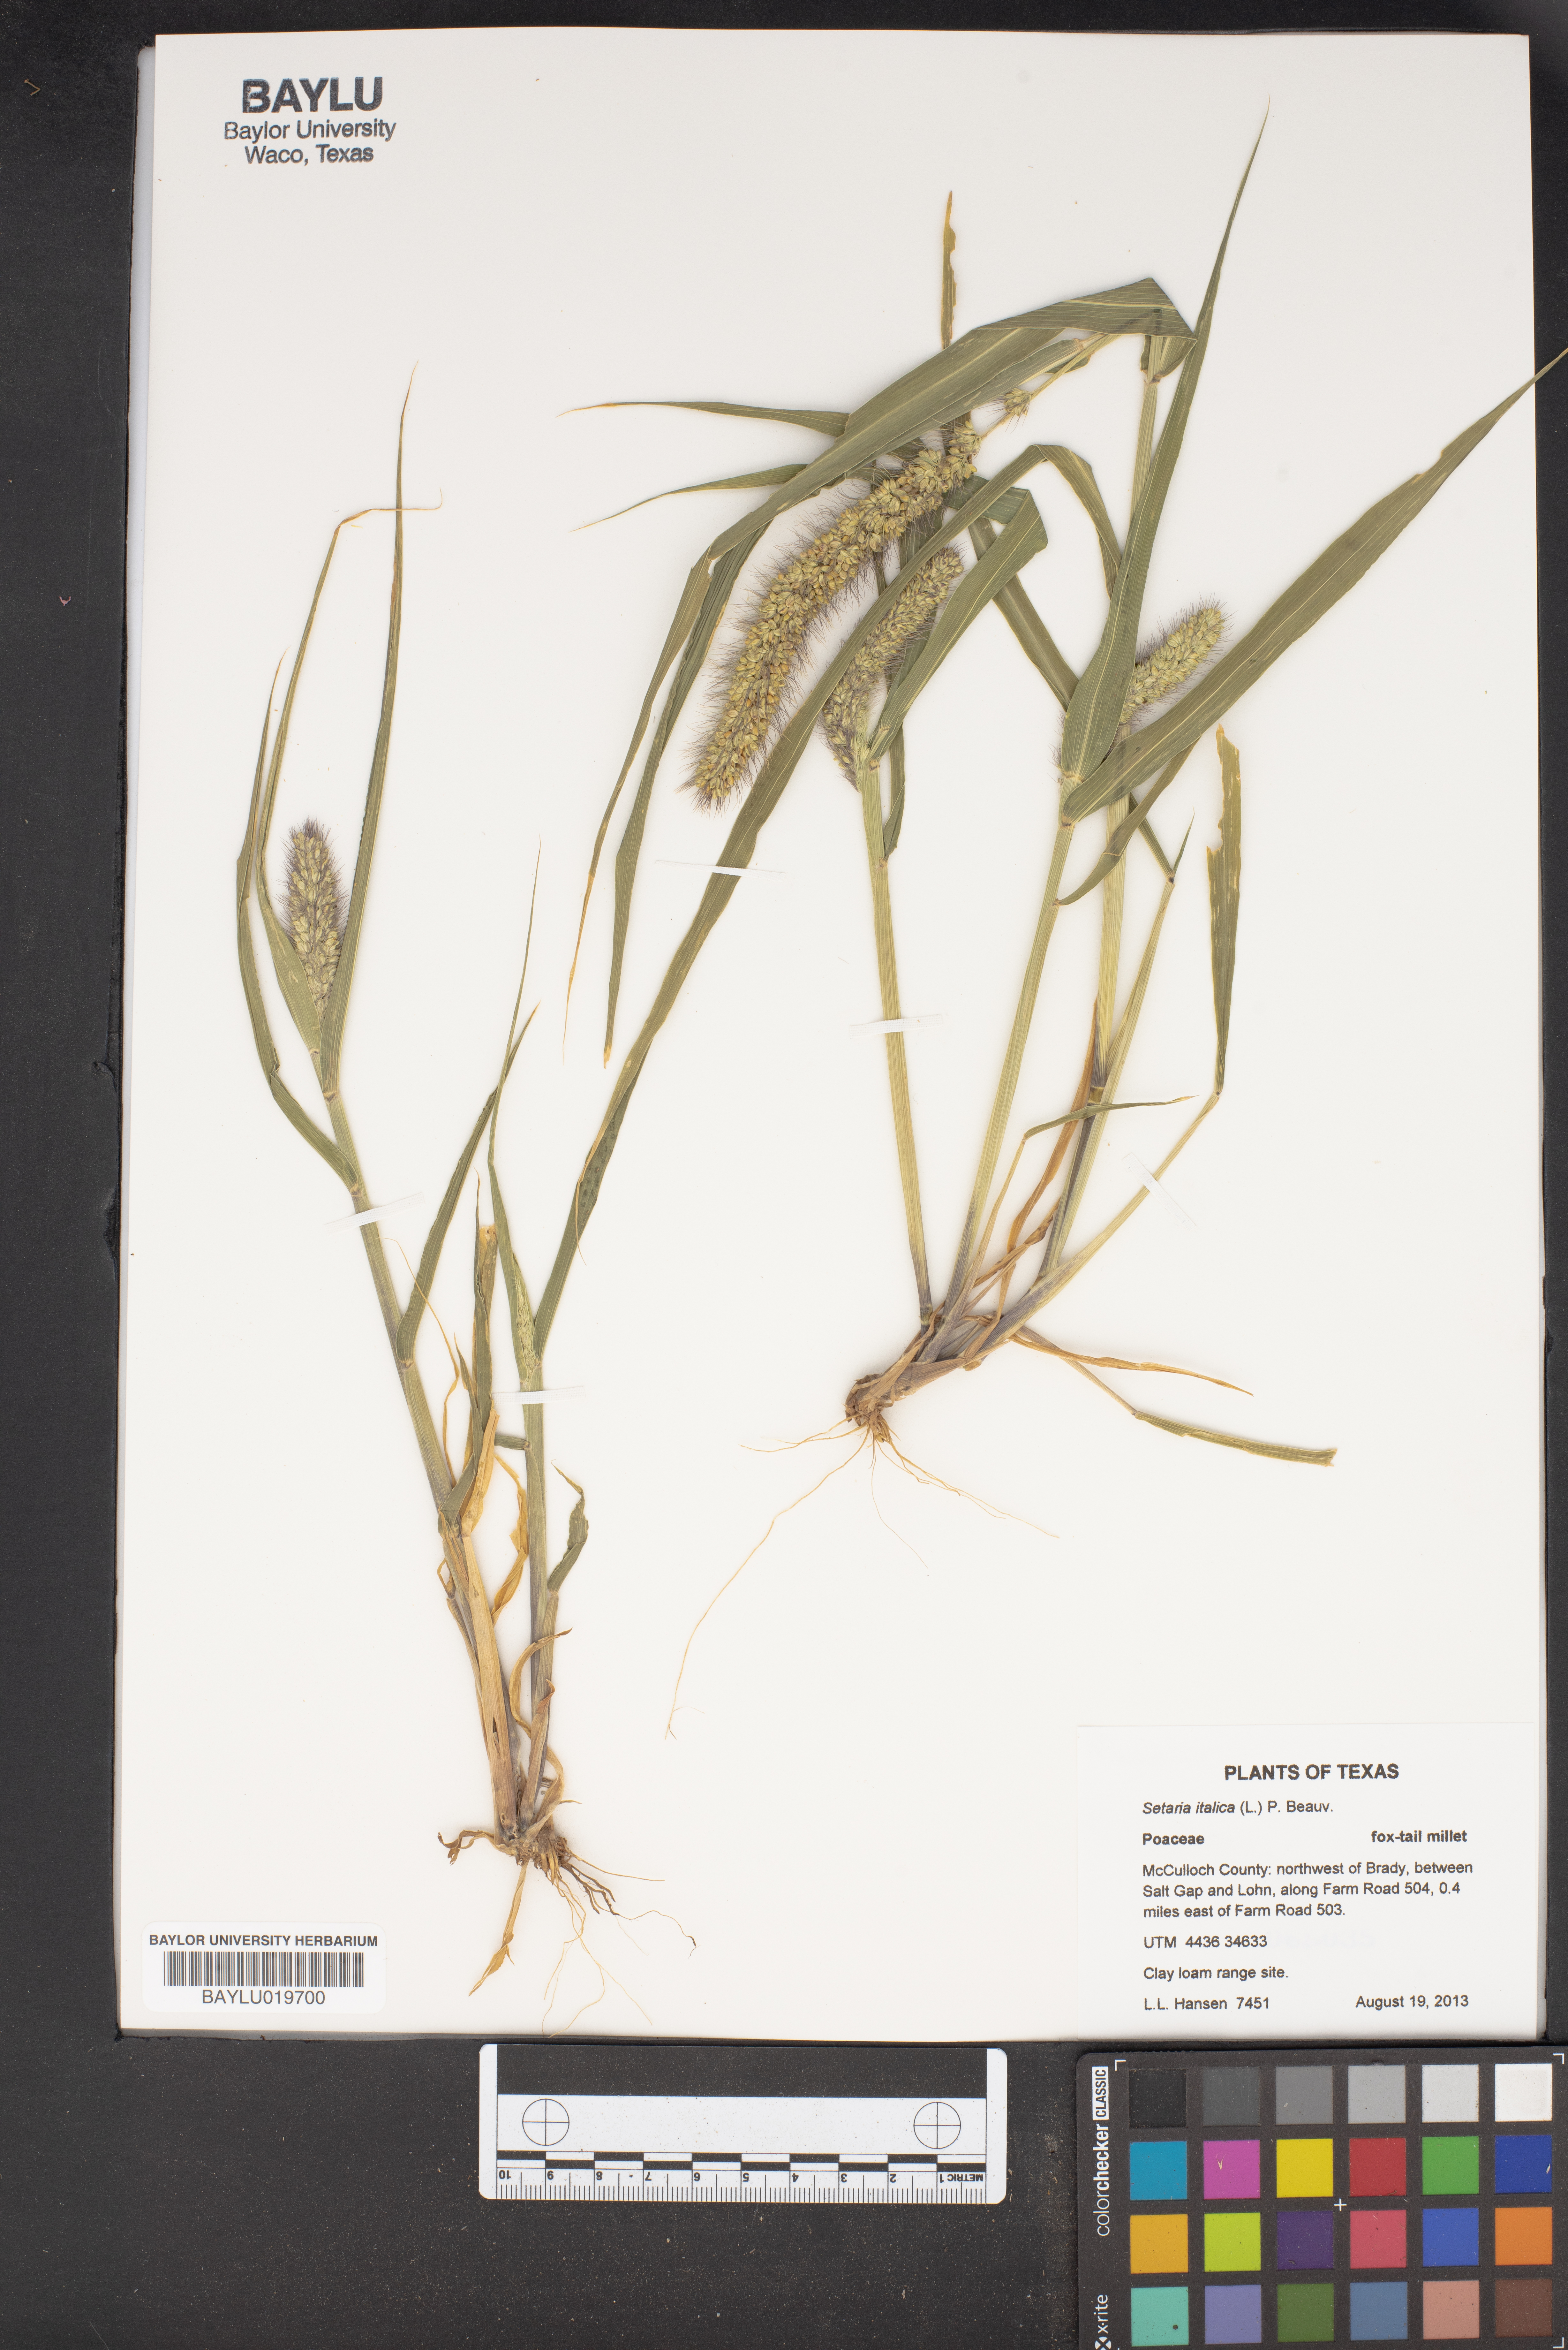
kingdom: Plantae
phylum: Tracheophyta
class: Liliopsida
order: Poales
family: Poaceae
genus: Setaria
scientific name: Setaria italica
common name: Foxtail bristle-grass
